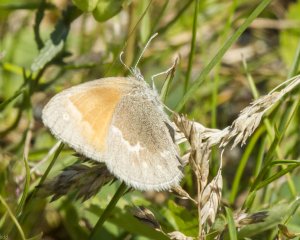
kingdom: Animalia
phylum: Arthropoda
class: Insecta
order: Lepidoptera
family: Nymphalidae
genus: Coenonympha
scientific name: Coenonympha tullia
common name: Large Heath
